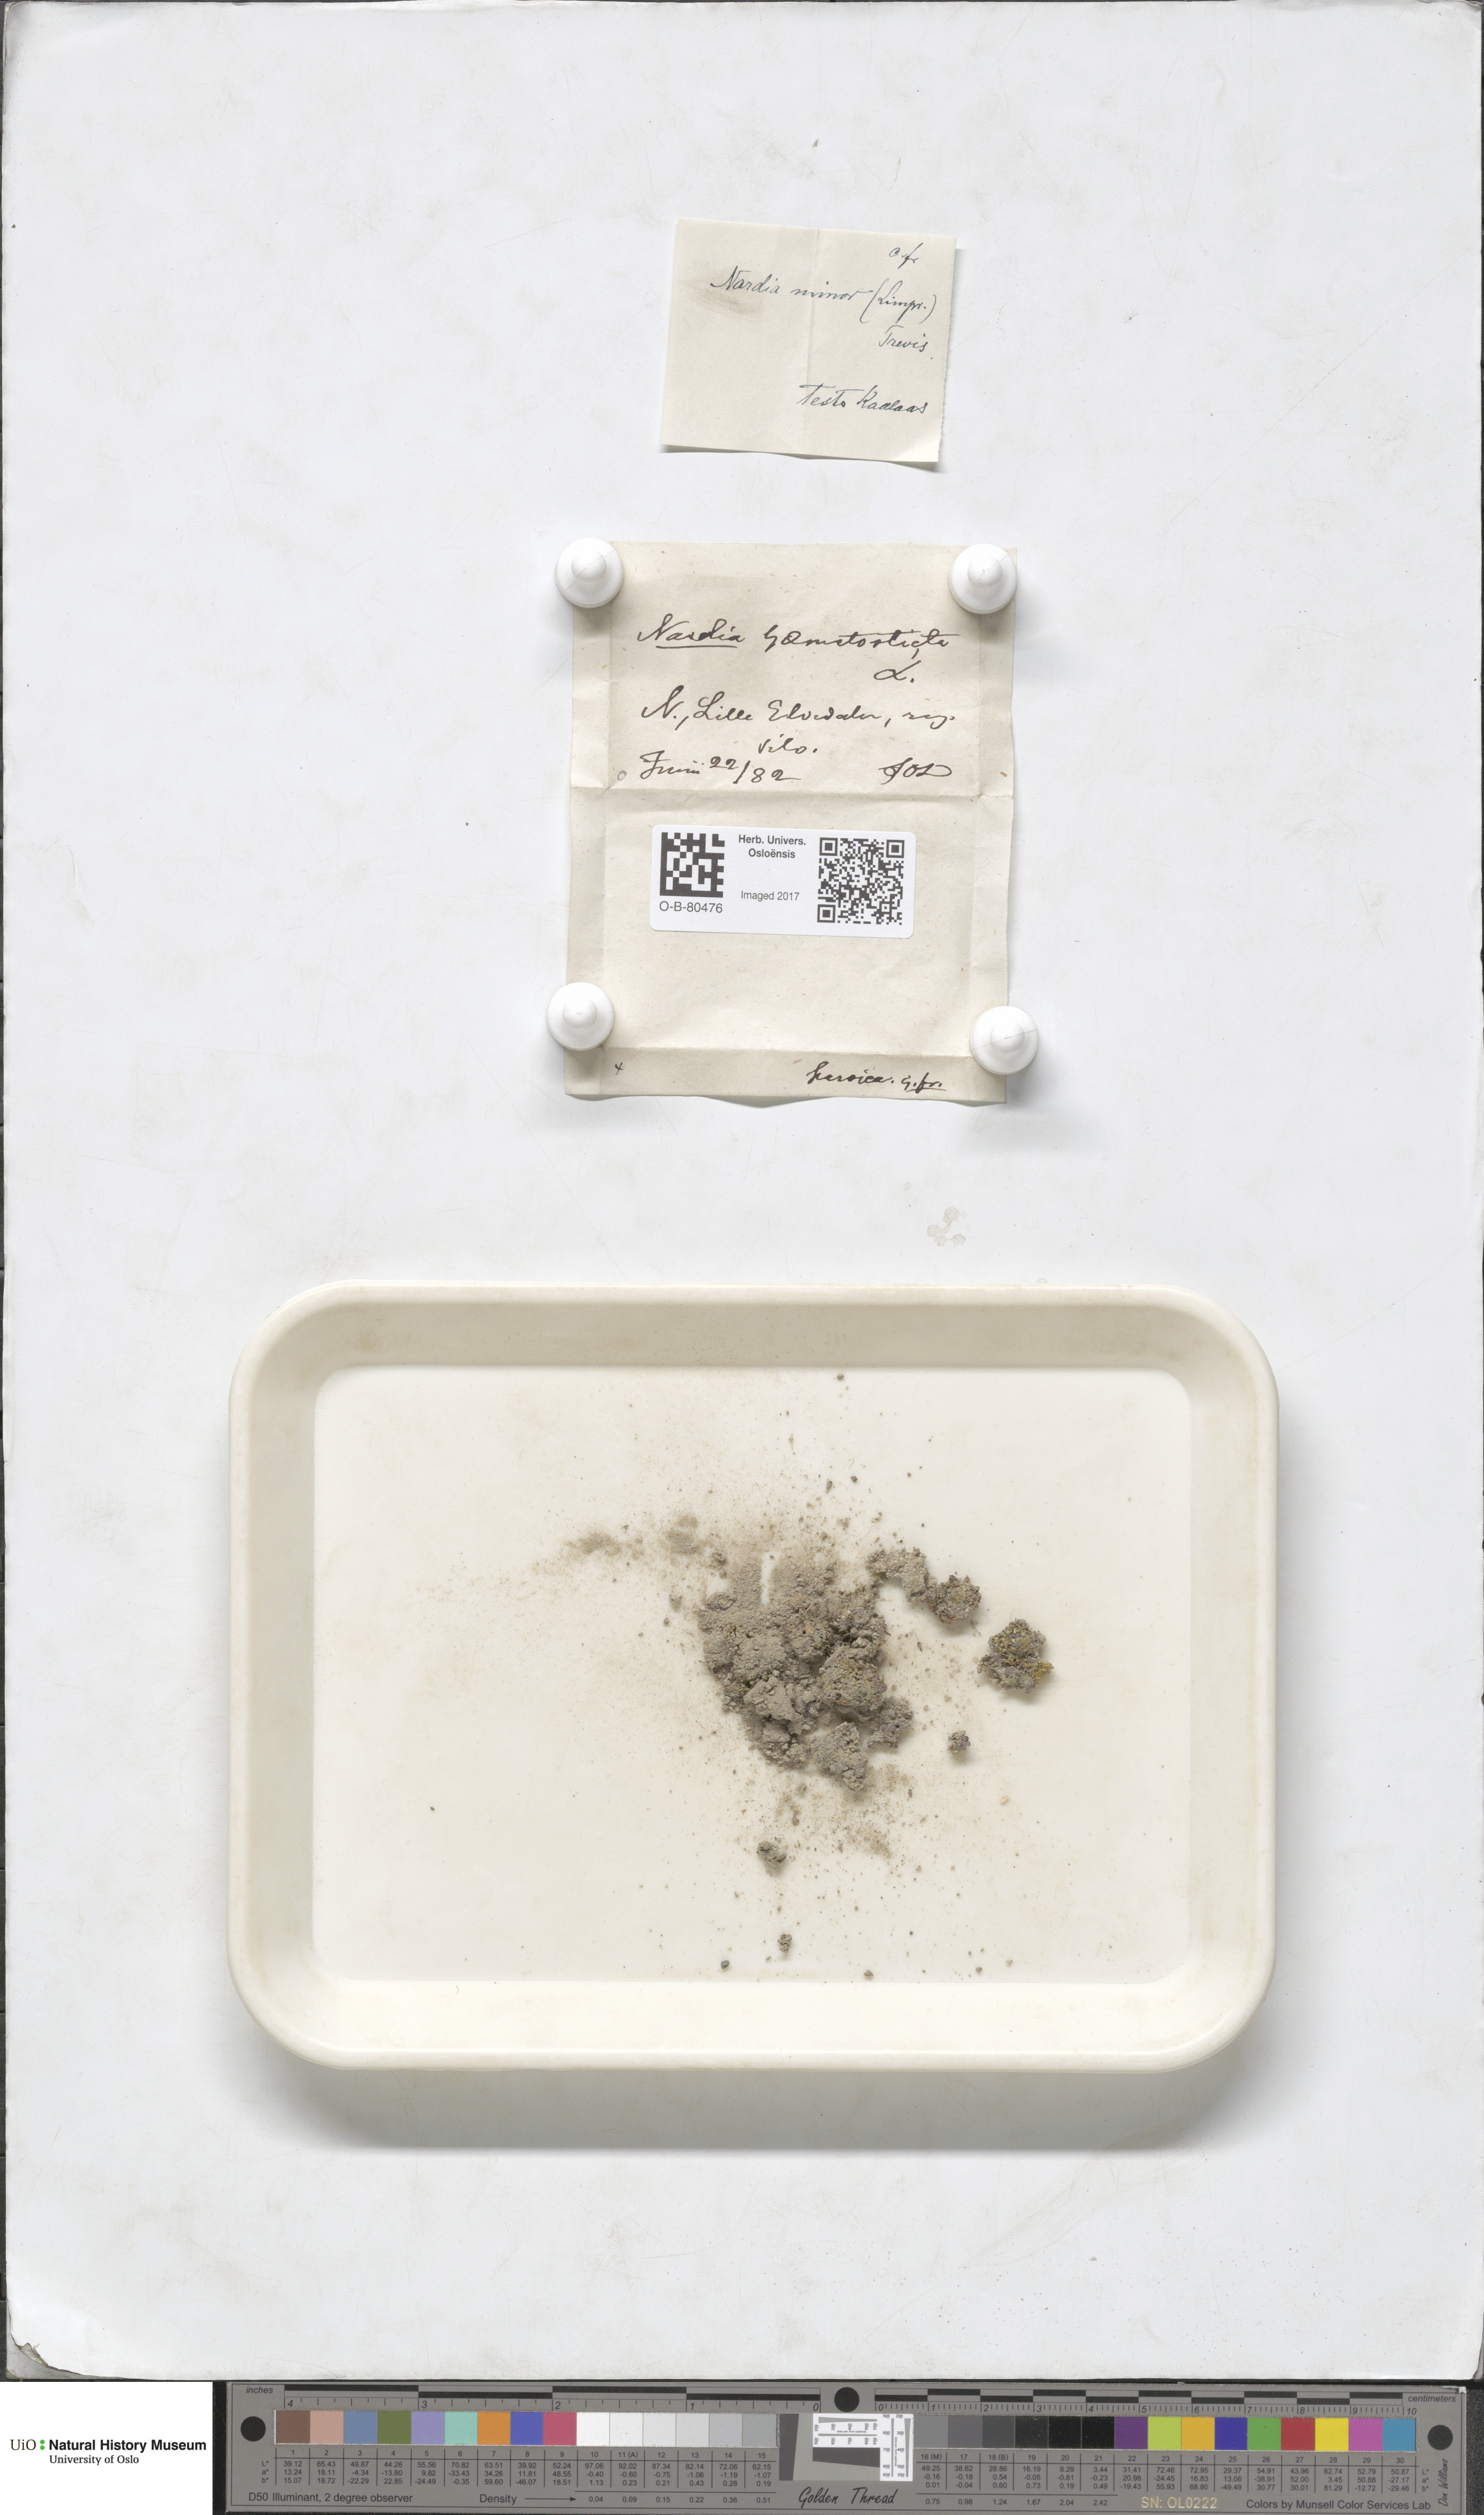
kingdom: Plantae
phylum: Marchantiophyta
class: Jungermanniopsida
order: Jungermanniales
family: Gymnomitriaceae
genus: Nardia
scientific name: Nardia geoscyphus
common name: Earth-cup flapwort
